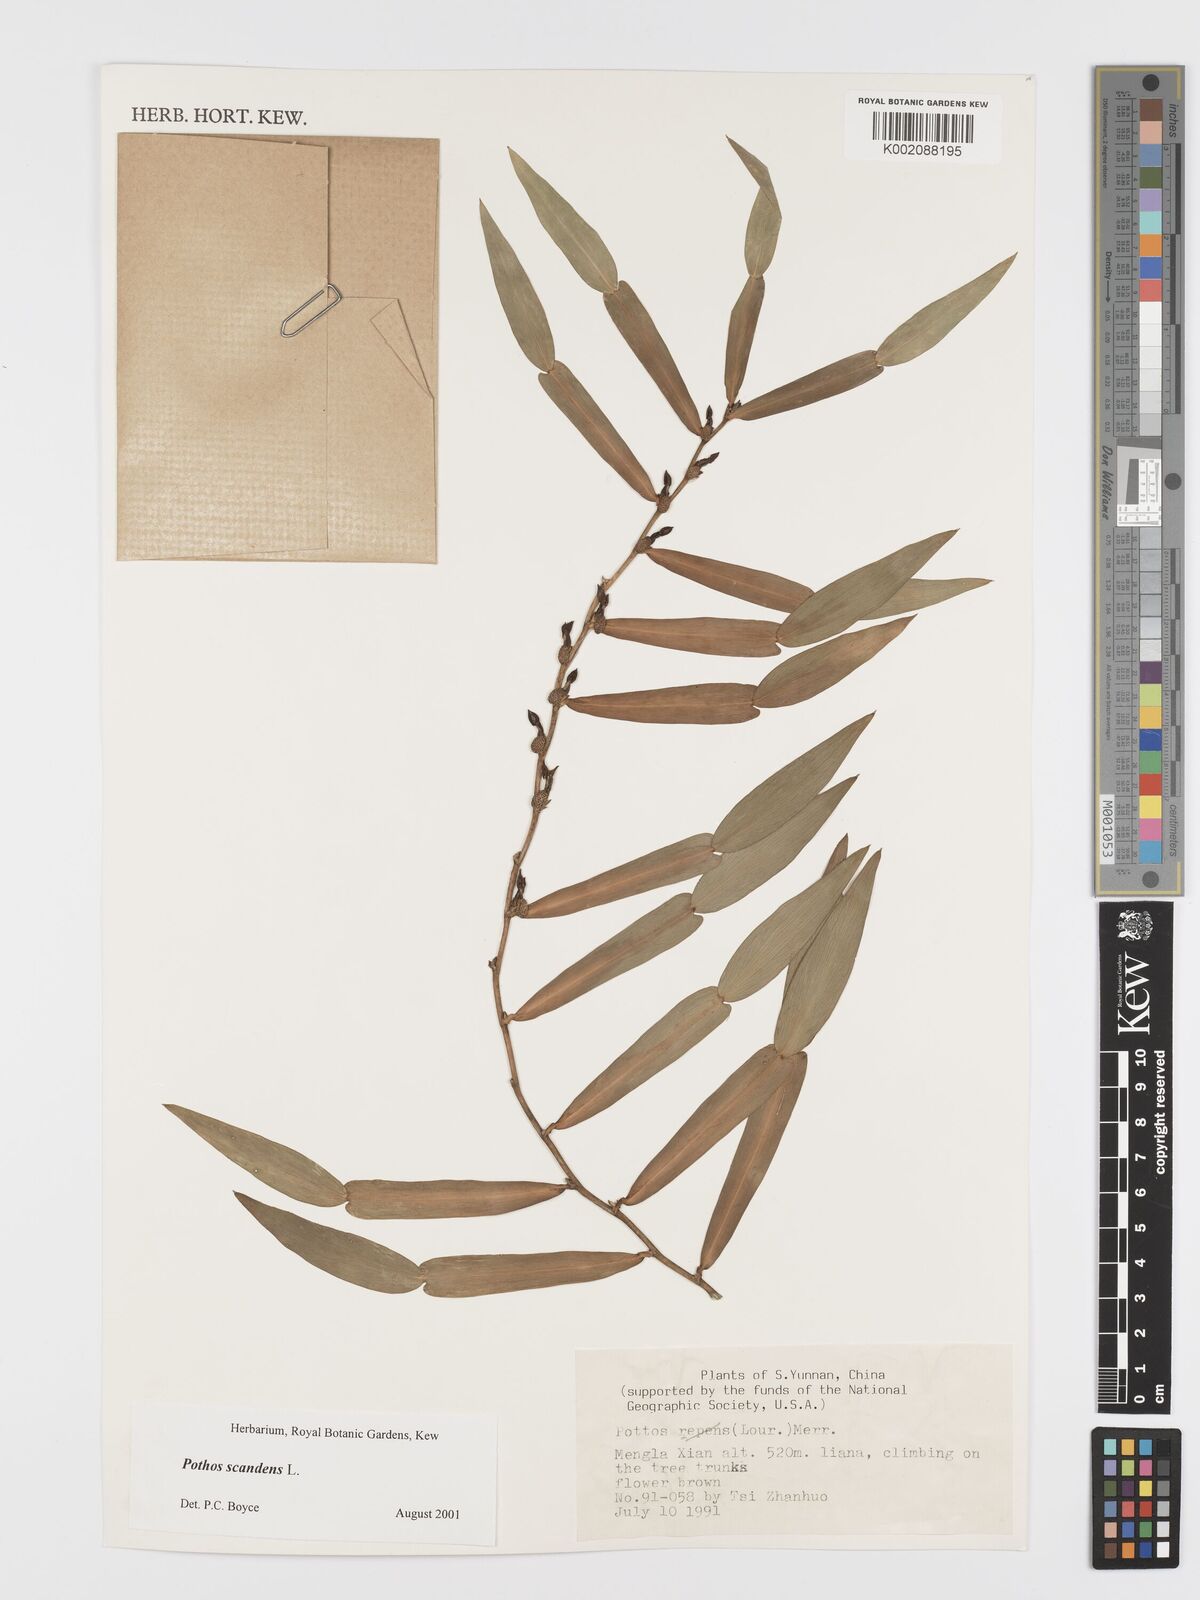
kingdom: Plantae
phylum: Tracheophyta
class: Liliopsida
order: Alismatales
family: Araceae
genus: Pothos
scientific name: Pothos scandens
